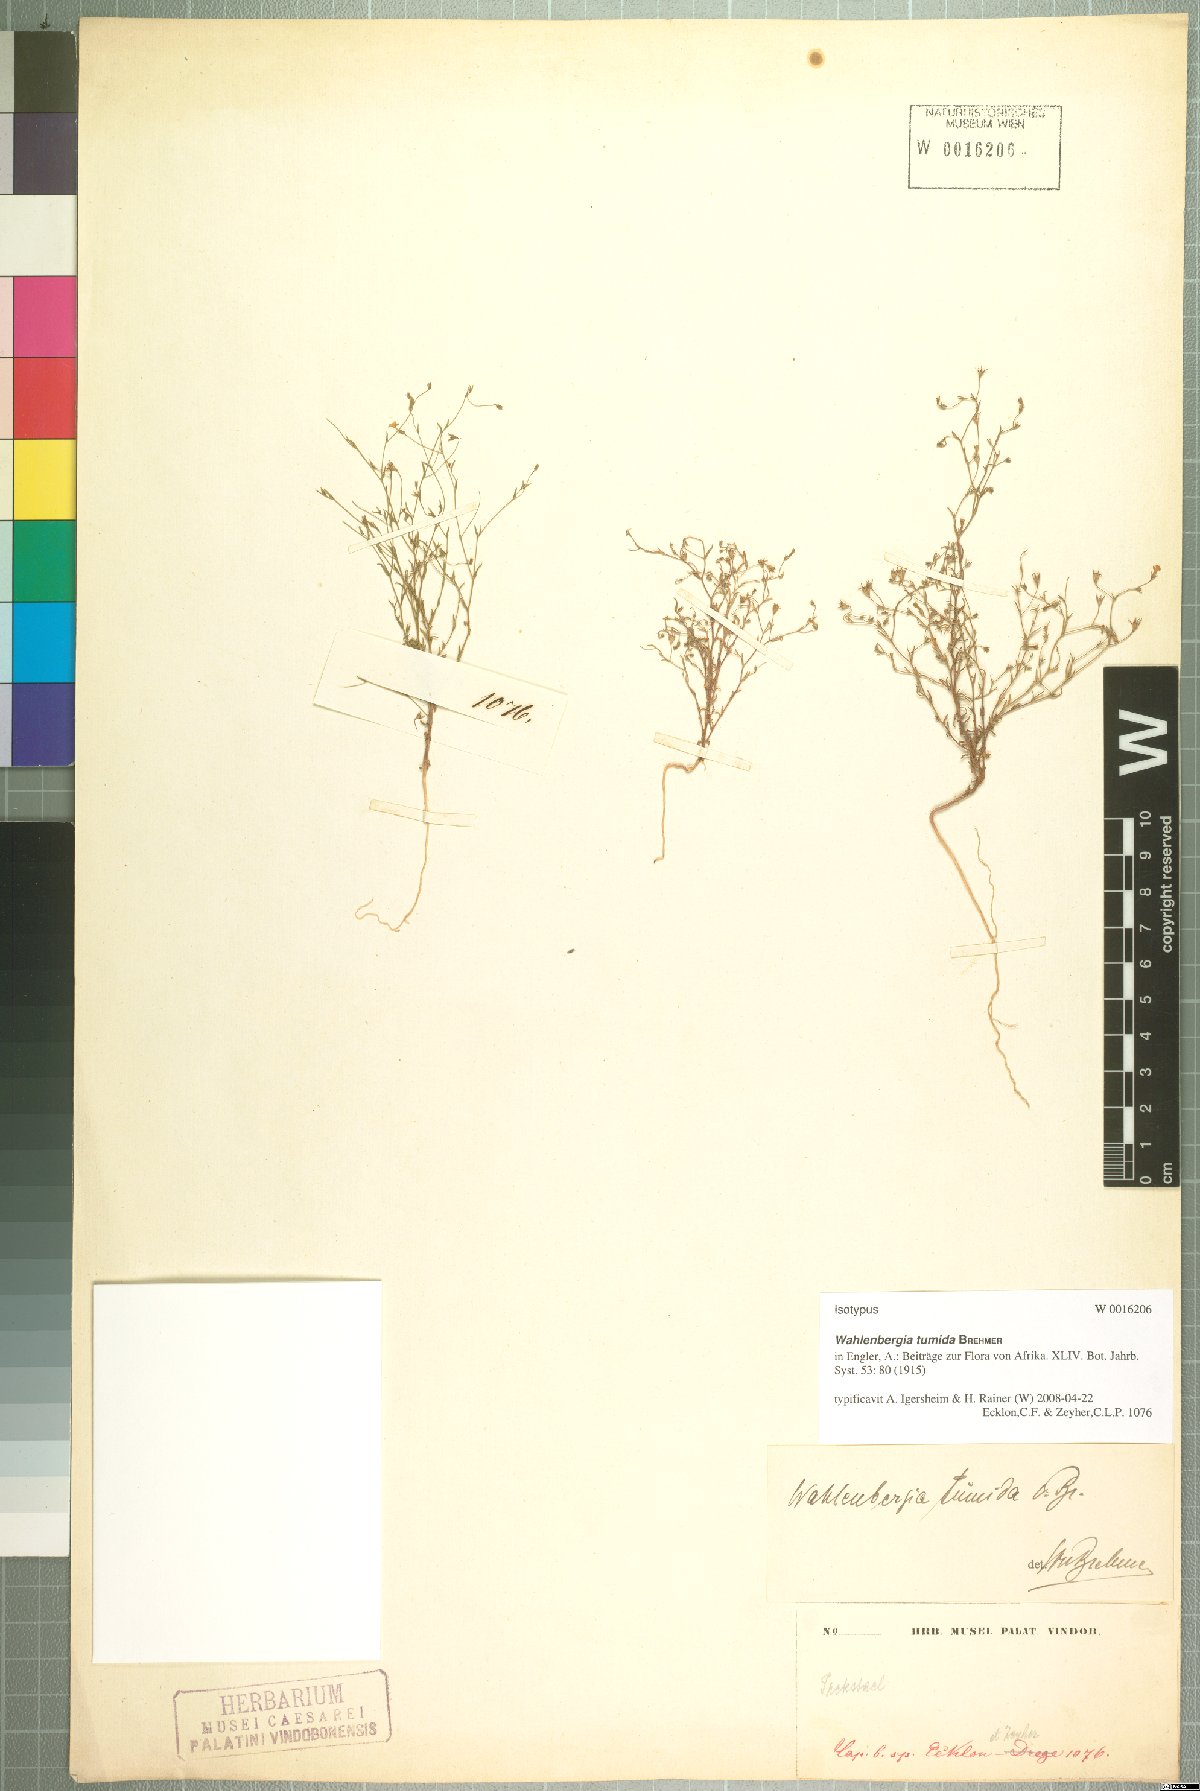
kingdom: Plantae
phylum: Tracheophyta
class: Magnoliopsida
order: Asterales
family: Campanulaceae
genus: Wahlenbergia
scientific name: Wahlenbergia tumida
